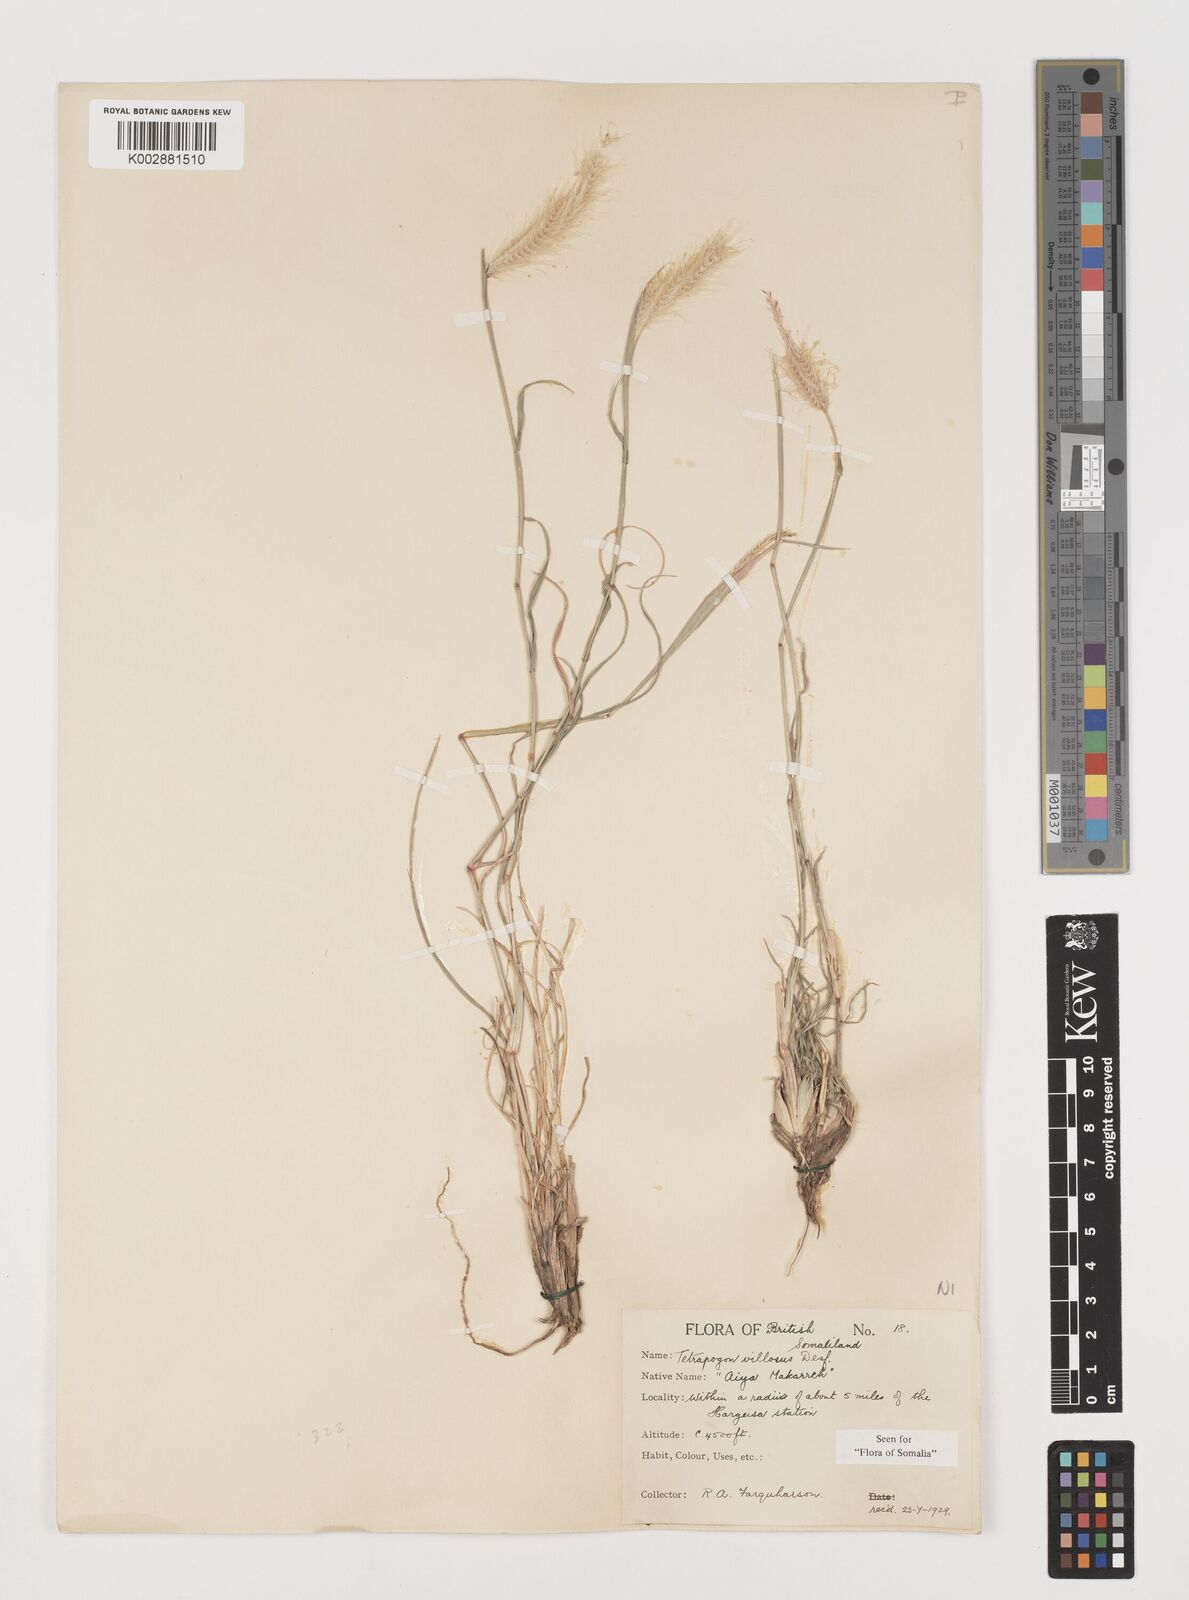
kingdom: Plantae
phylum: Tracheophyta
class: Liliopsida
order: Poales
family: Poaceae
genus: Tetrapogon
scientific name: Tetrapogon villosus
